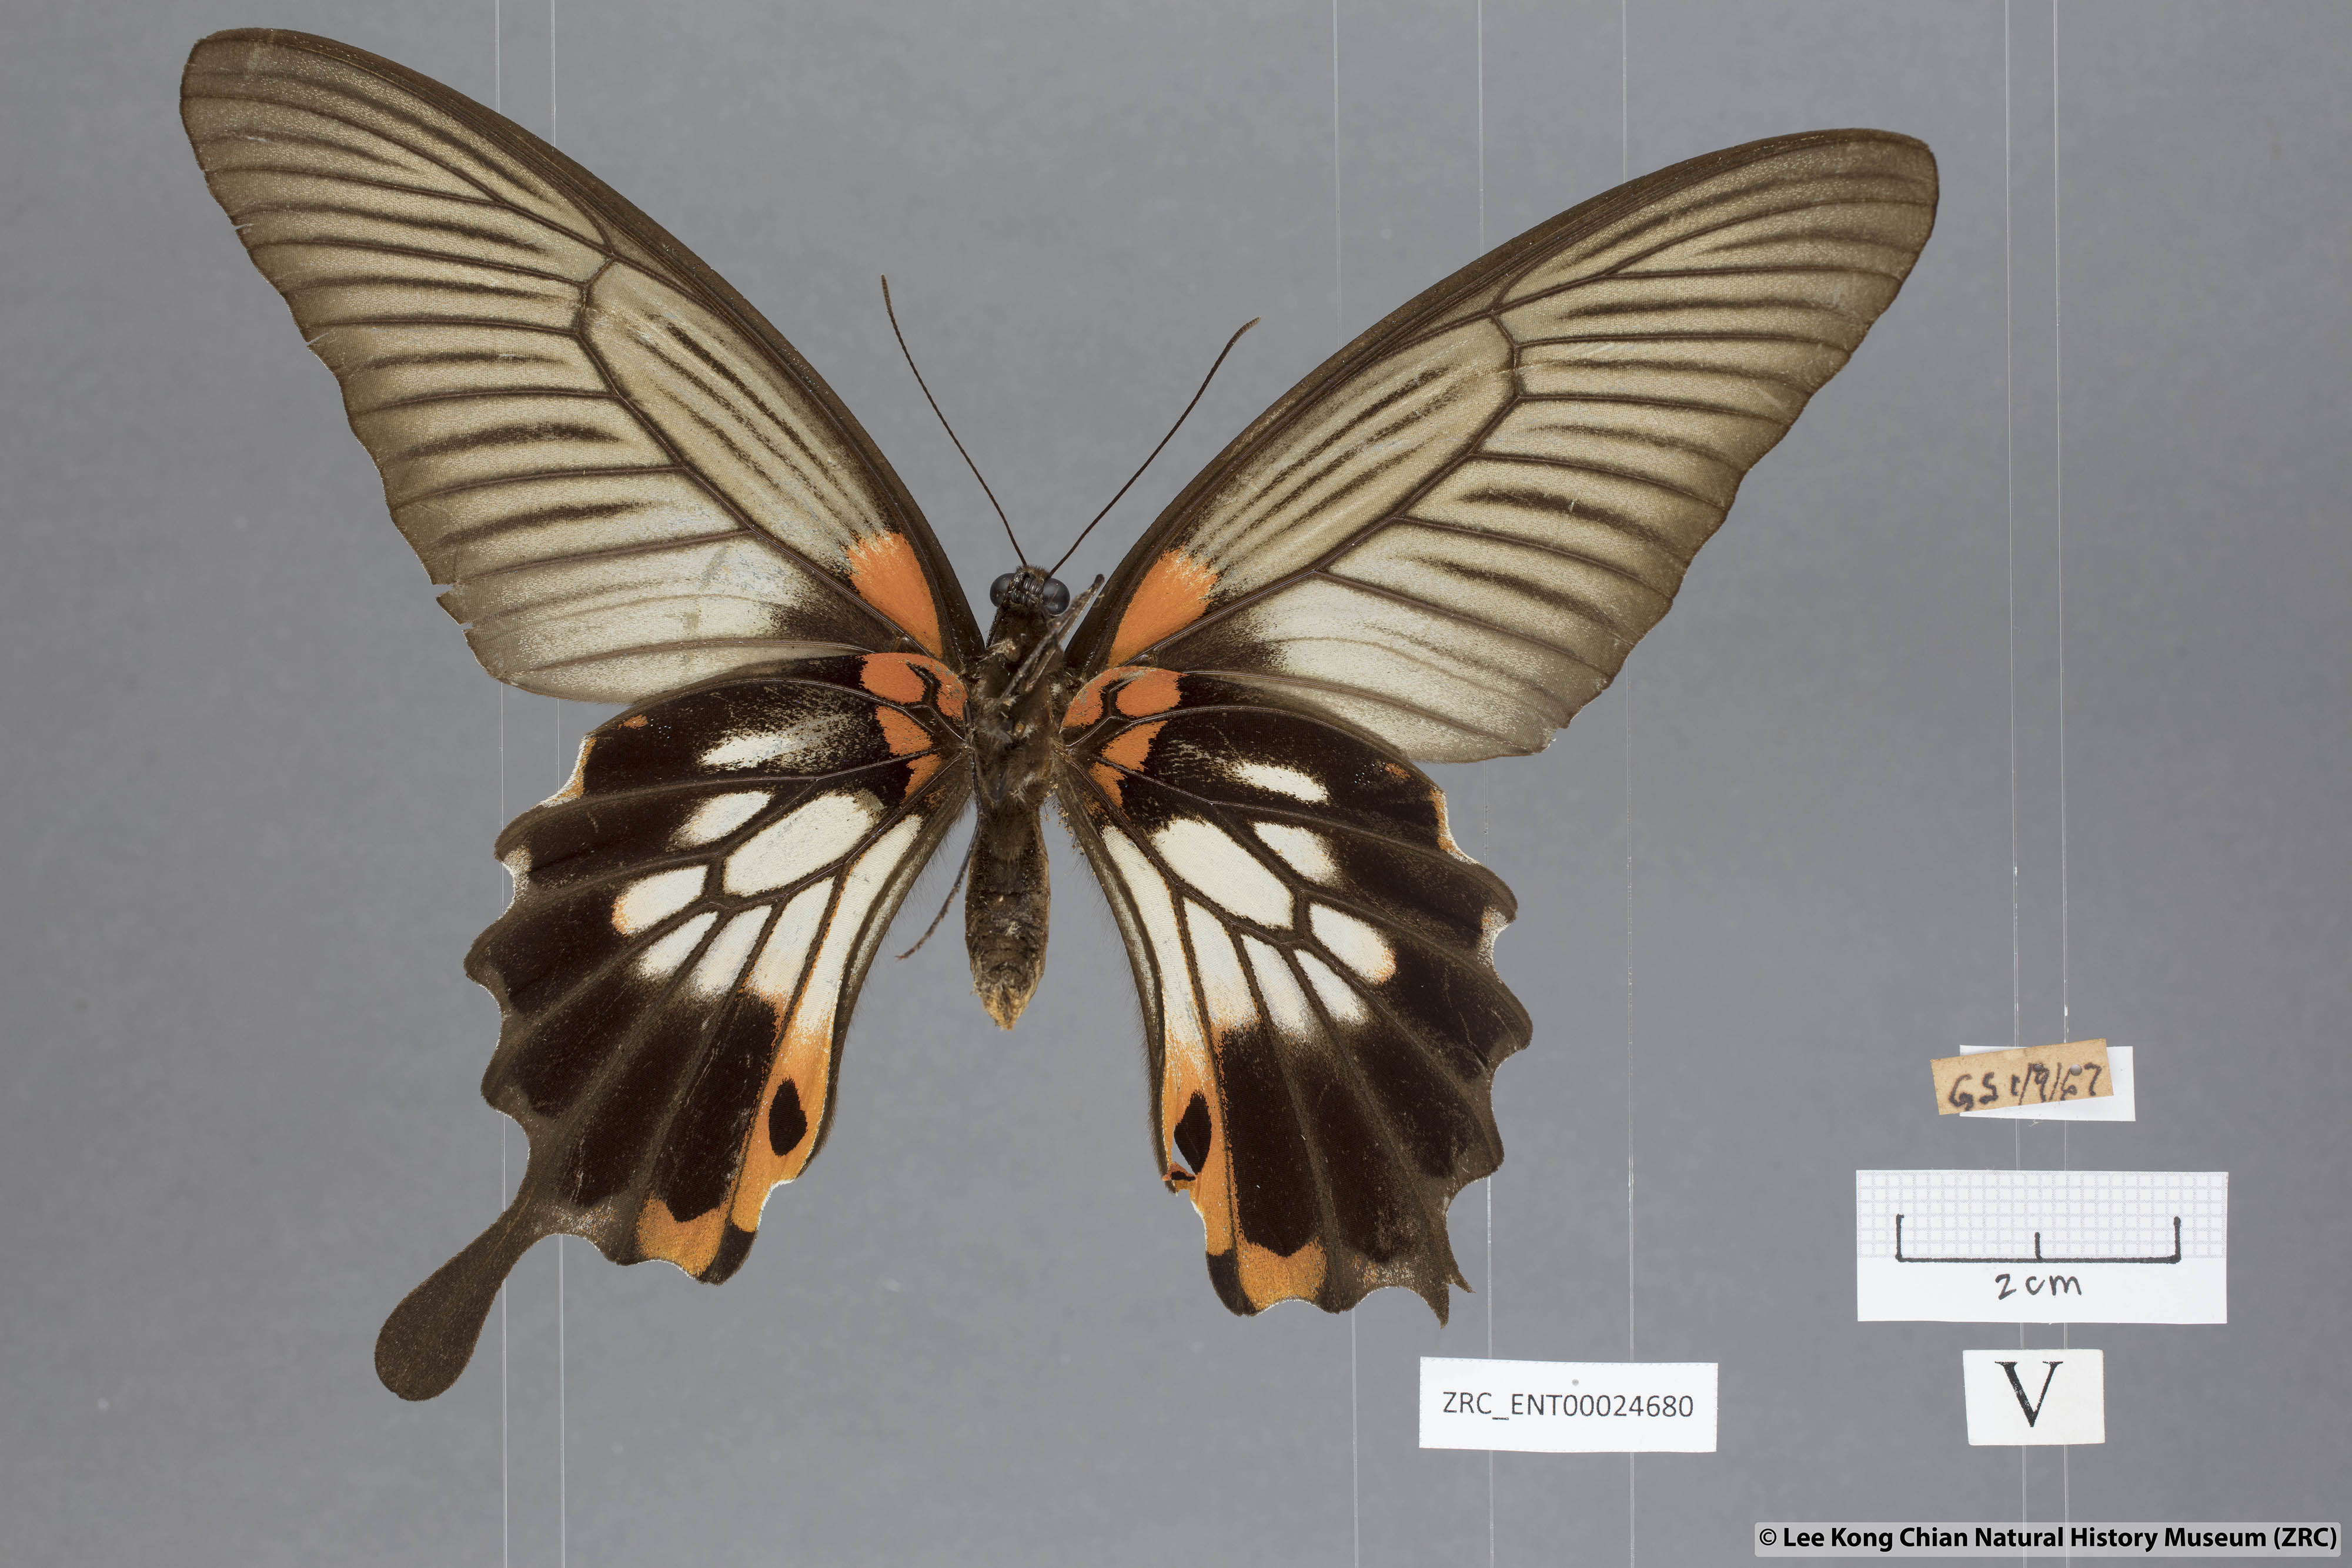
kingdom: Animalia
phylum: Arthropoda
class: Insecta
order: Lepidoptera
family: Papilionidae
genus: Papilio
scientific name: Papilio memnon
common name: Great mormon
